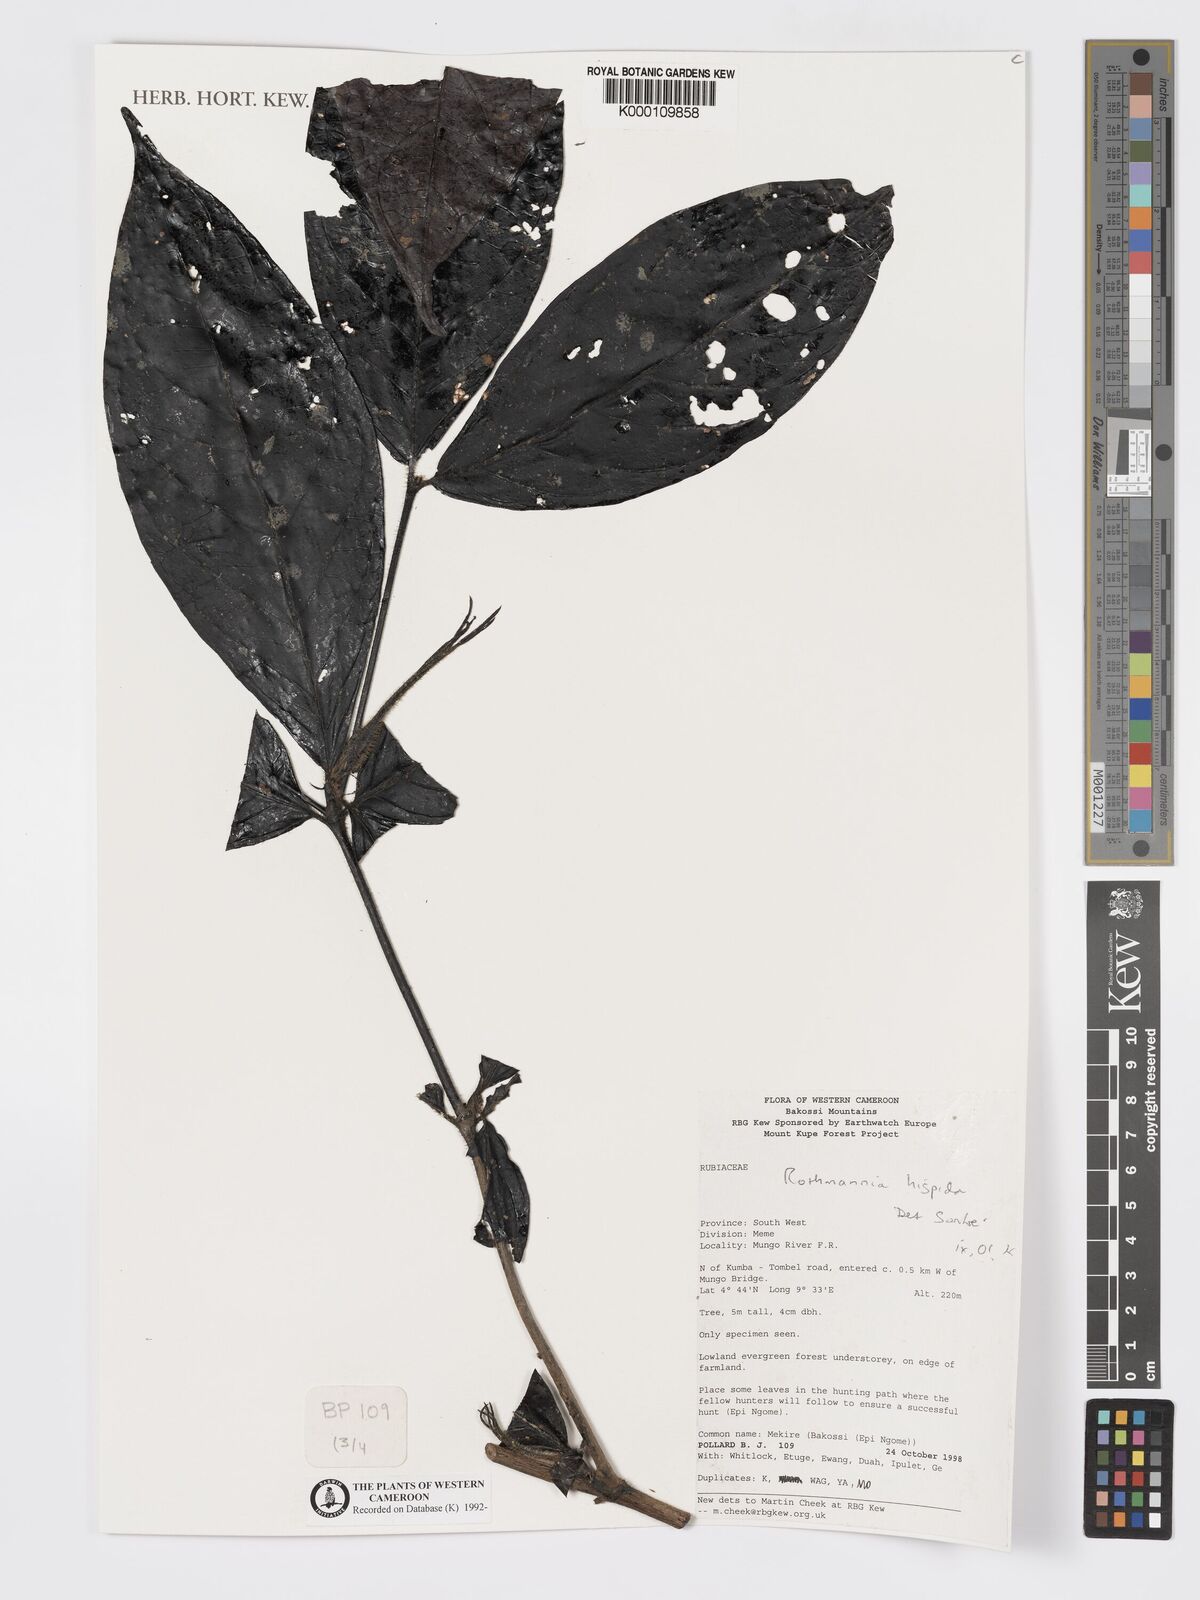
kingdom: Plantae
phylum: Tracheophyta
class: Magnoliopsida
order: Gentianales
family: Rubiaceae
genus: Rothmannia
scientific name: Rothmannia hispida
